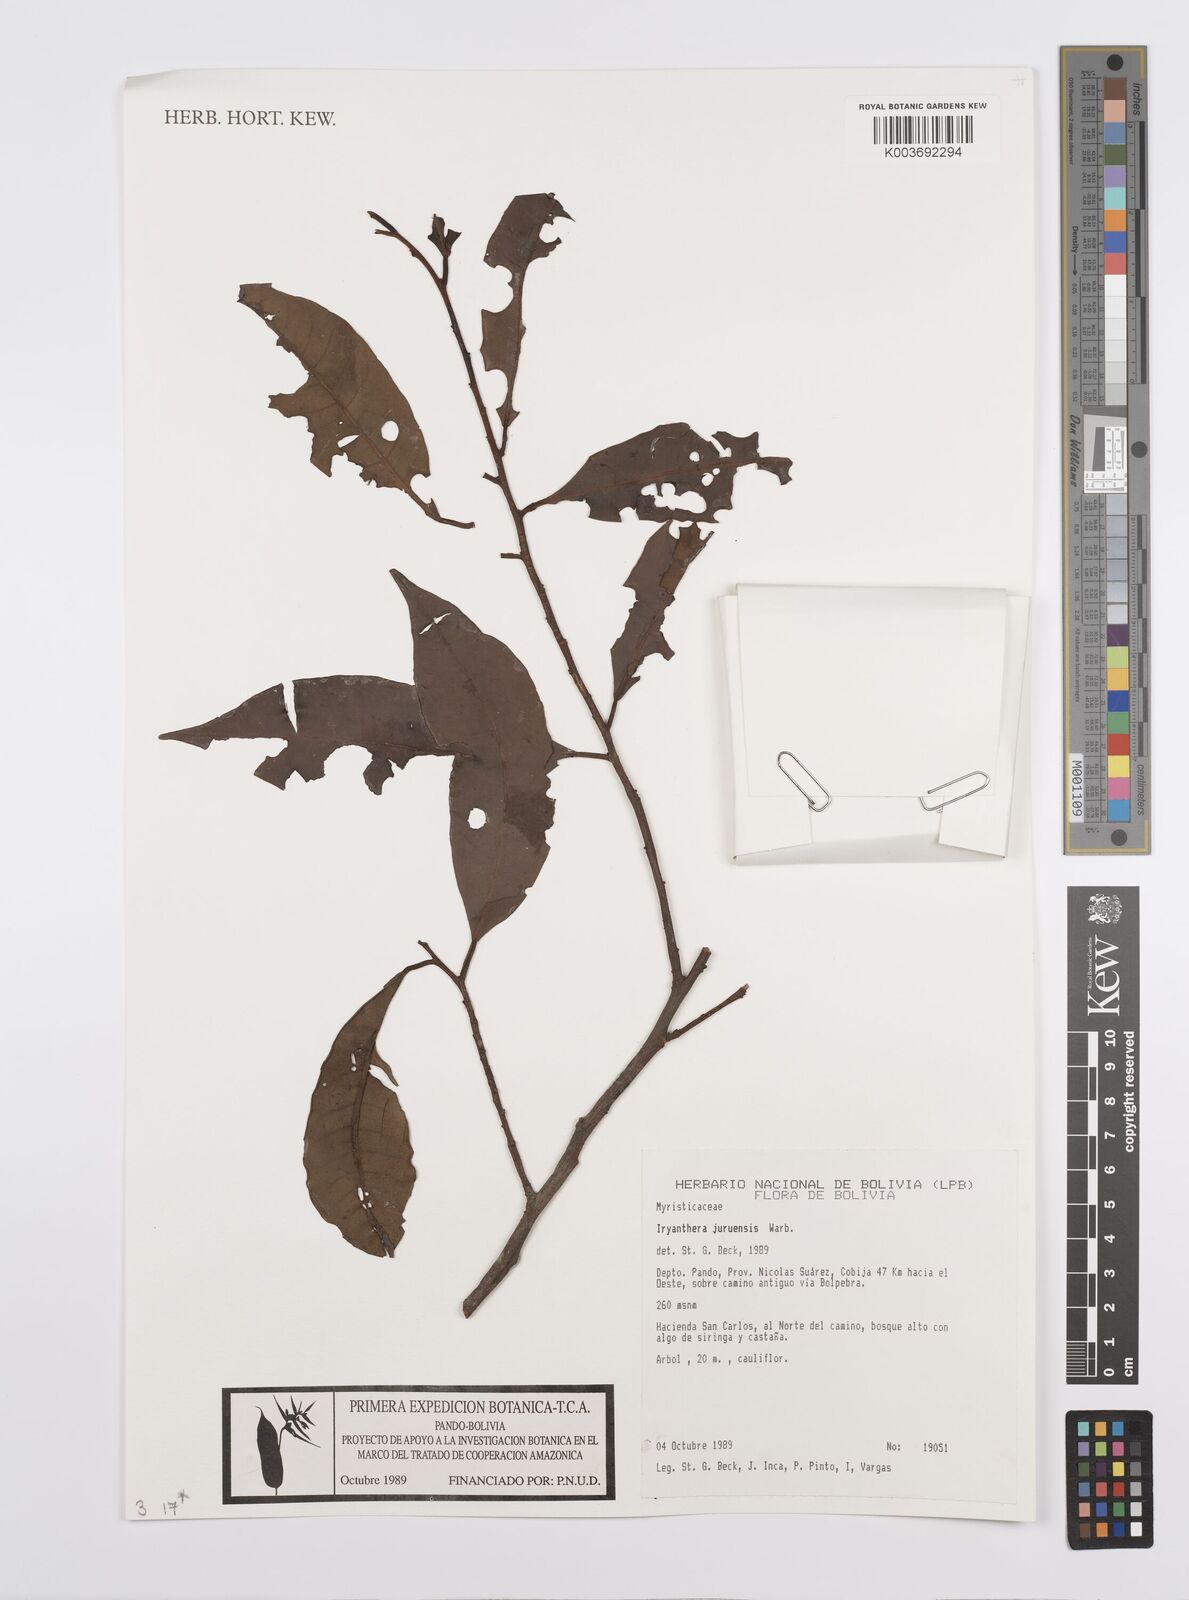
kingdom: Plantae
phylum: Tracheophyta
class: Magnoliopsida
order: Magnoliales
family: Myristicaceae
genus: Iryanthera
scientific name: Iryanthera juruensis
